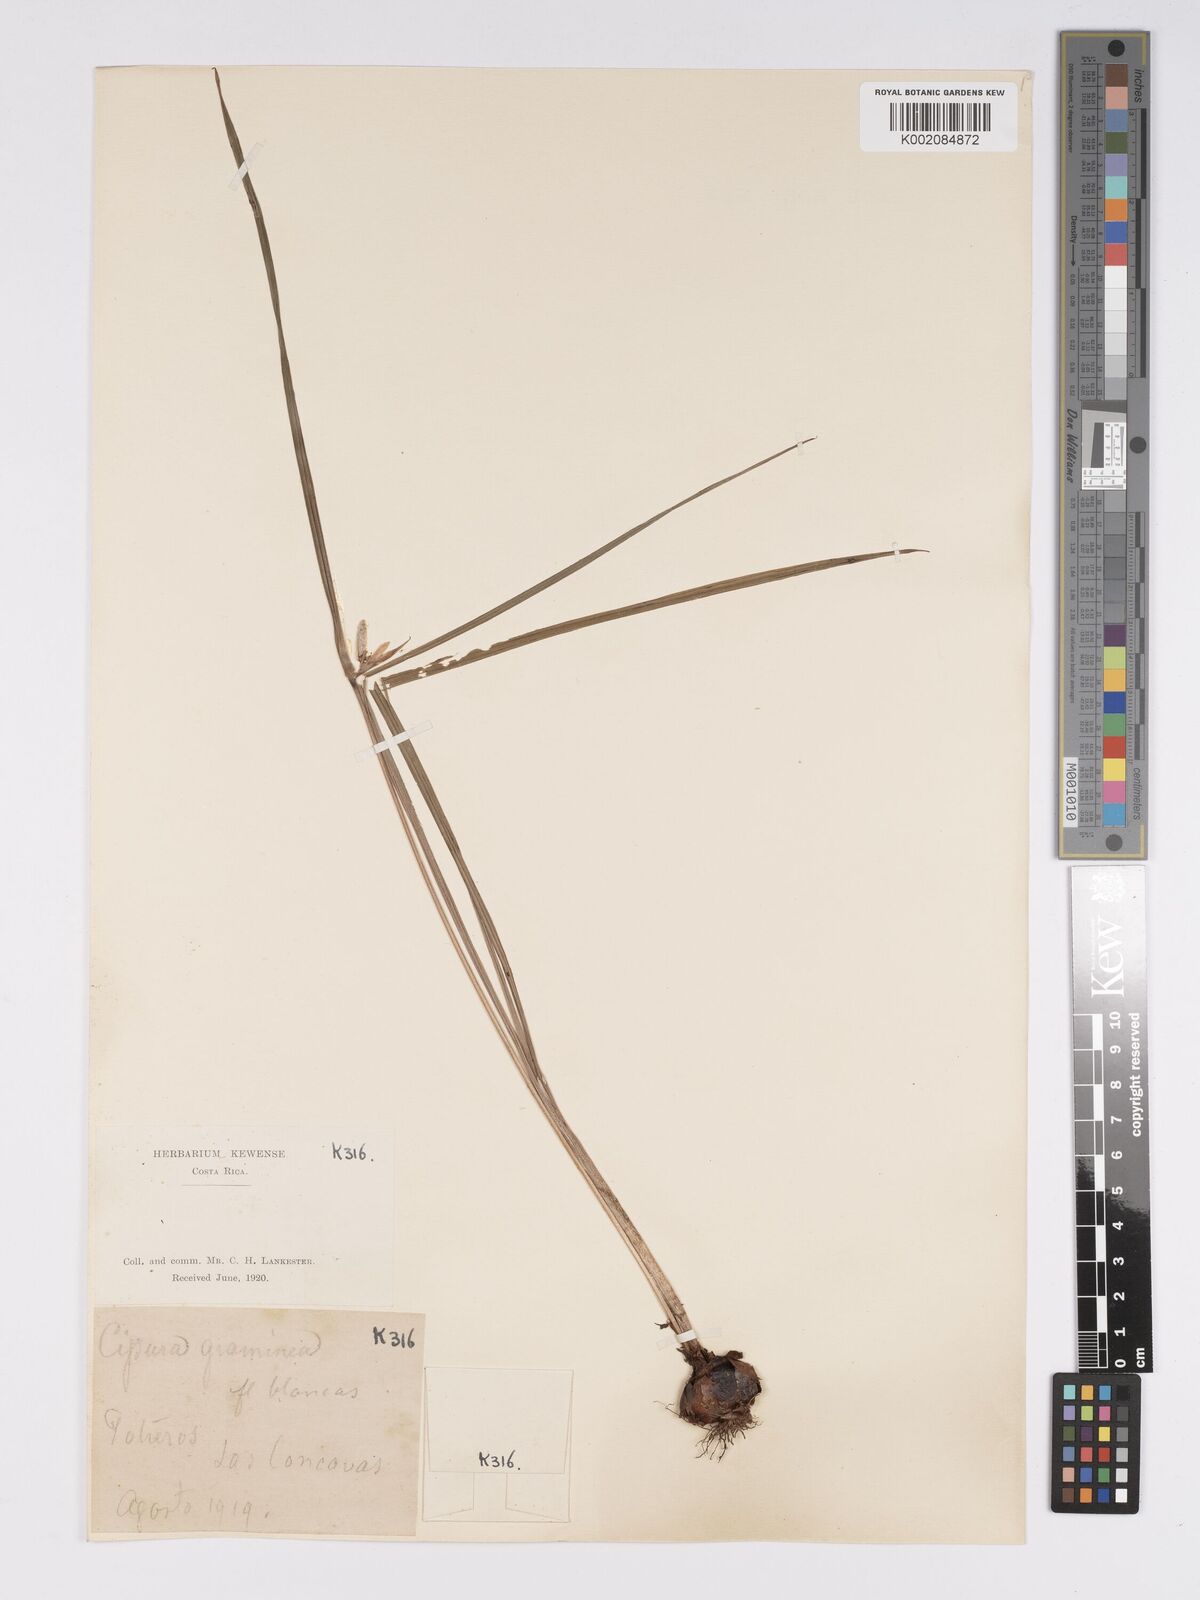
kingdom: Plantae
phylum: Tracheophyta
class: Liliopsida
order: Asparagales
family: Iridaceae
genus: Cipura
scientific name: Cipura
